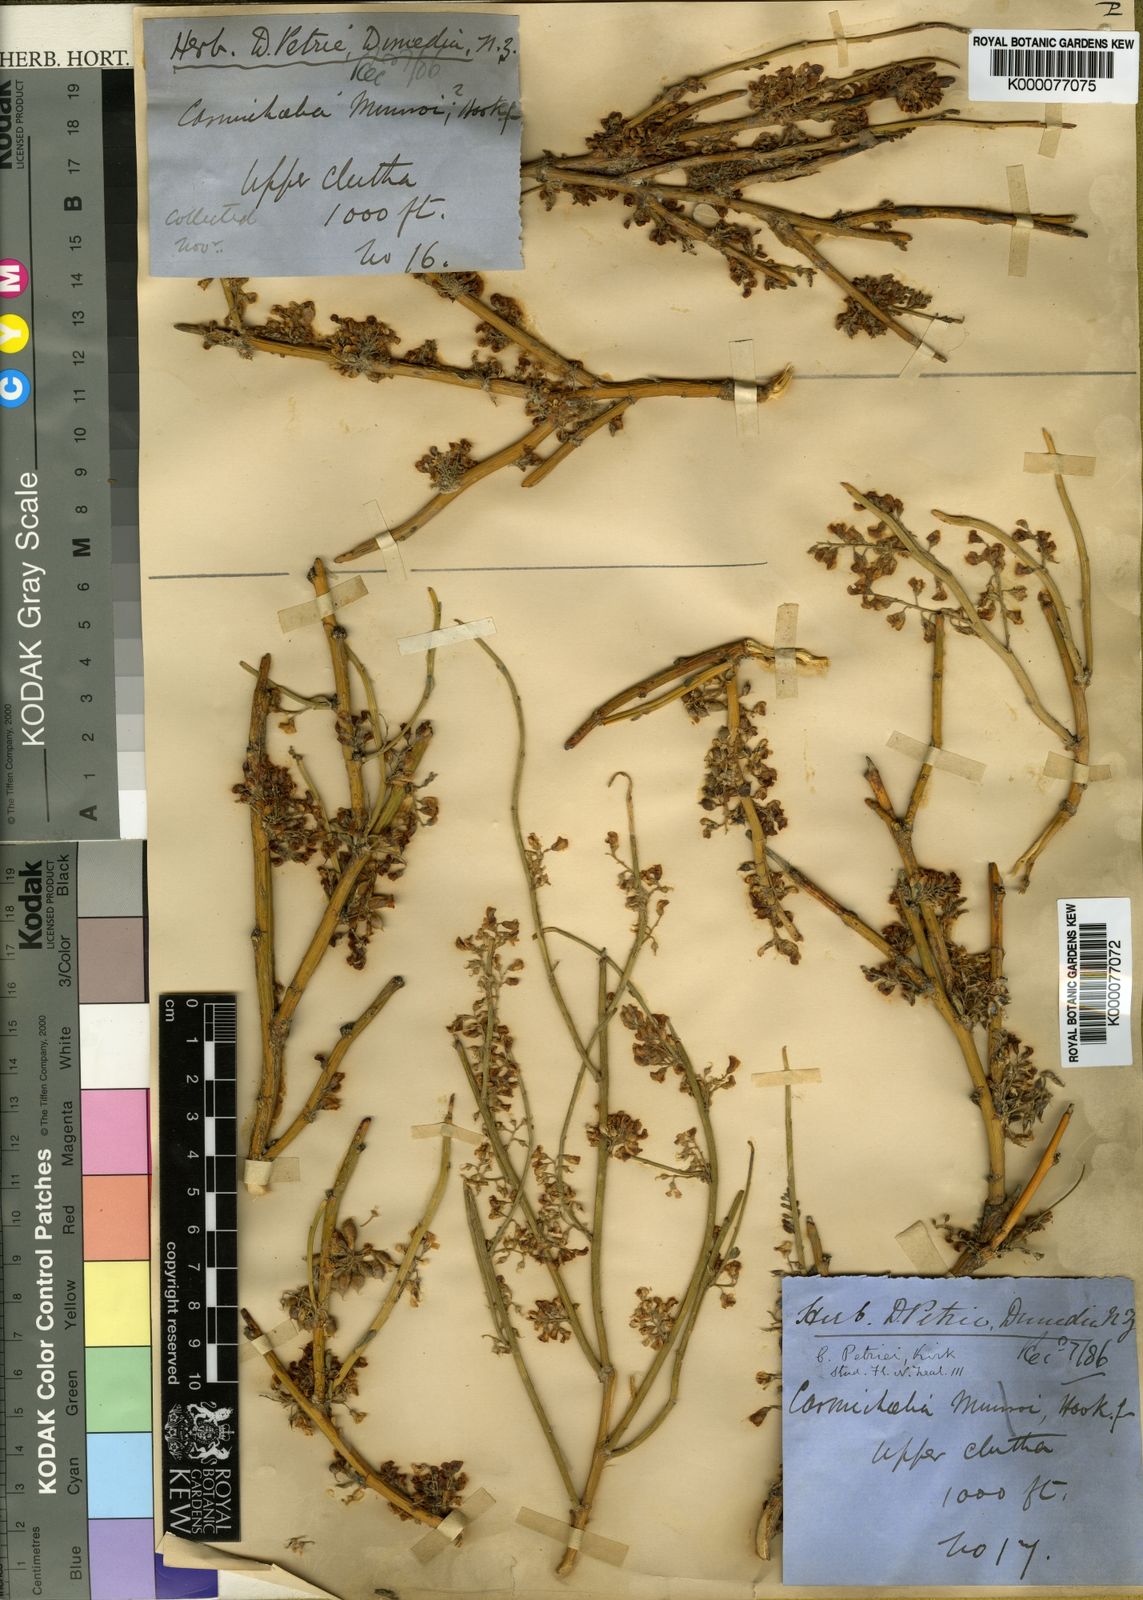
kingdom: Plantae
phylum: Tracheophyta
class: Magnoliopsida
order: Fabales
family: Fabaceae
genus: Carmichaelia
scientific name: Carmichaelia petriei
